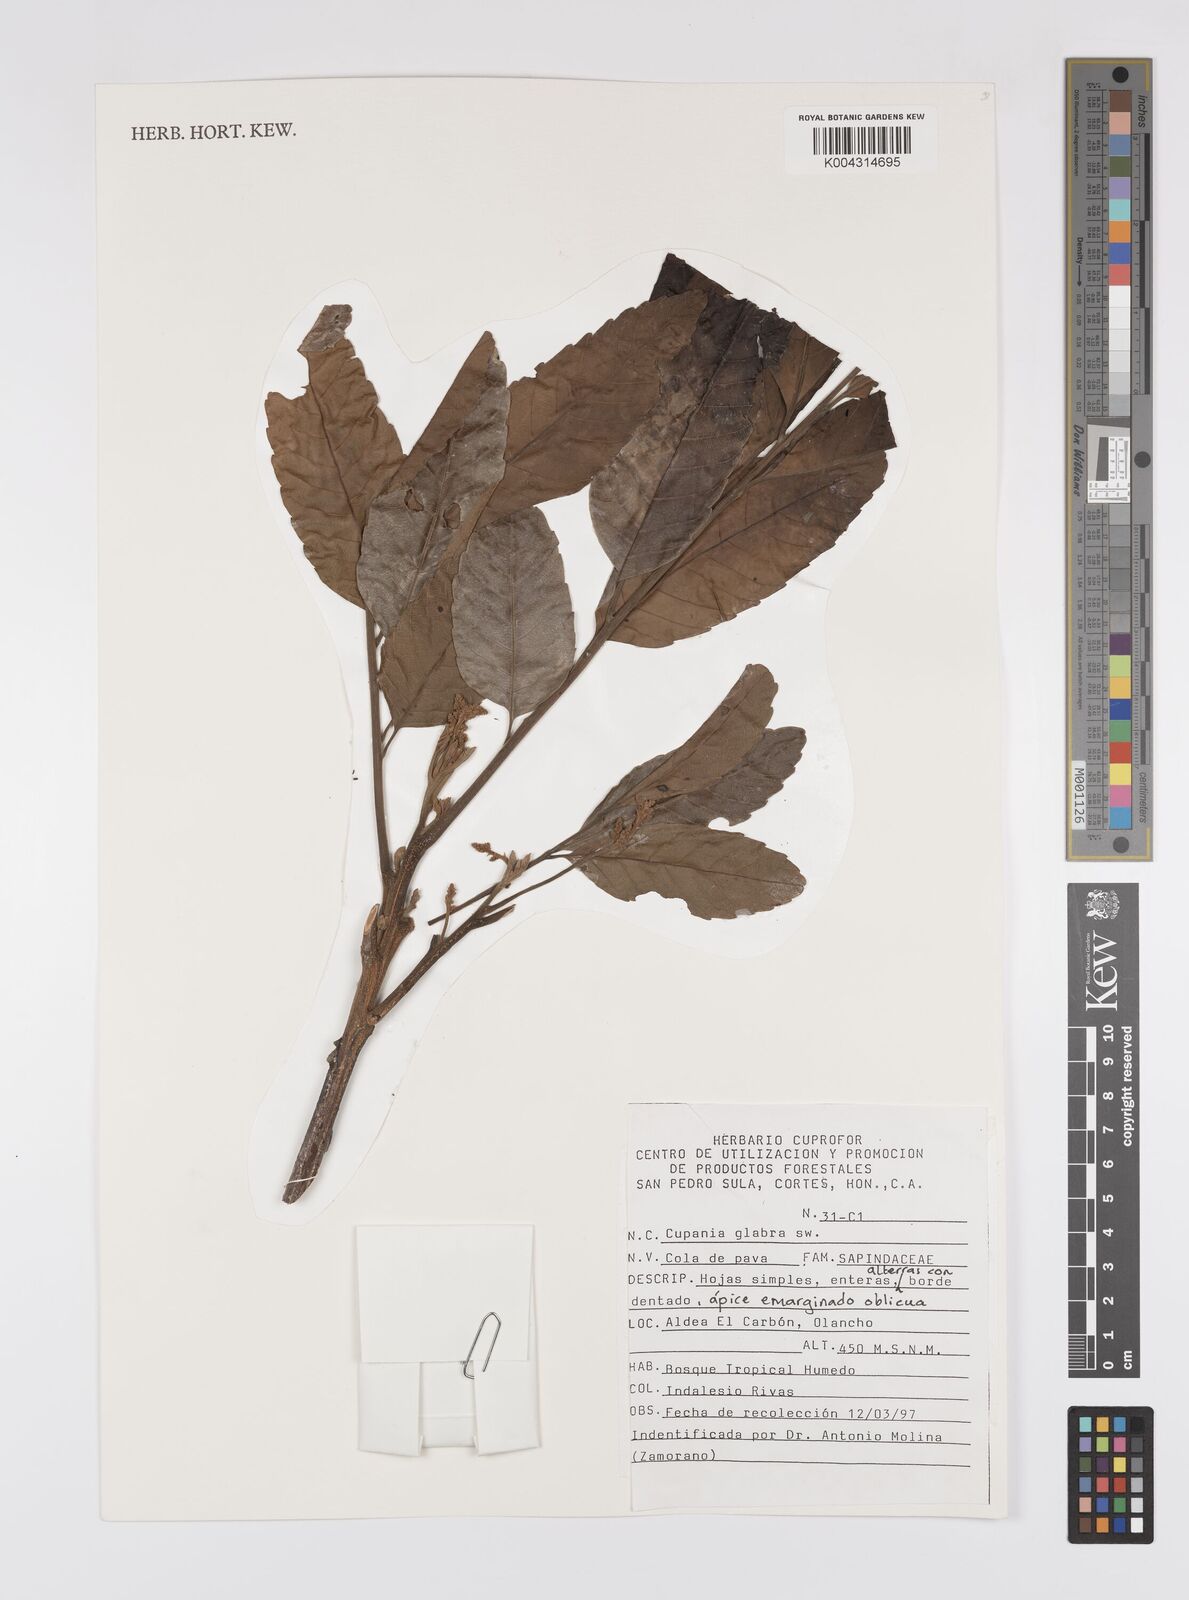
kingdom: Plantae
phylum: Tracheophyta
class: Magnoliopsida
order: Sapindales
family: Sapindaceae
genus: Cupania
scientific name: Cupania
